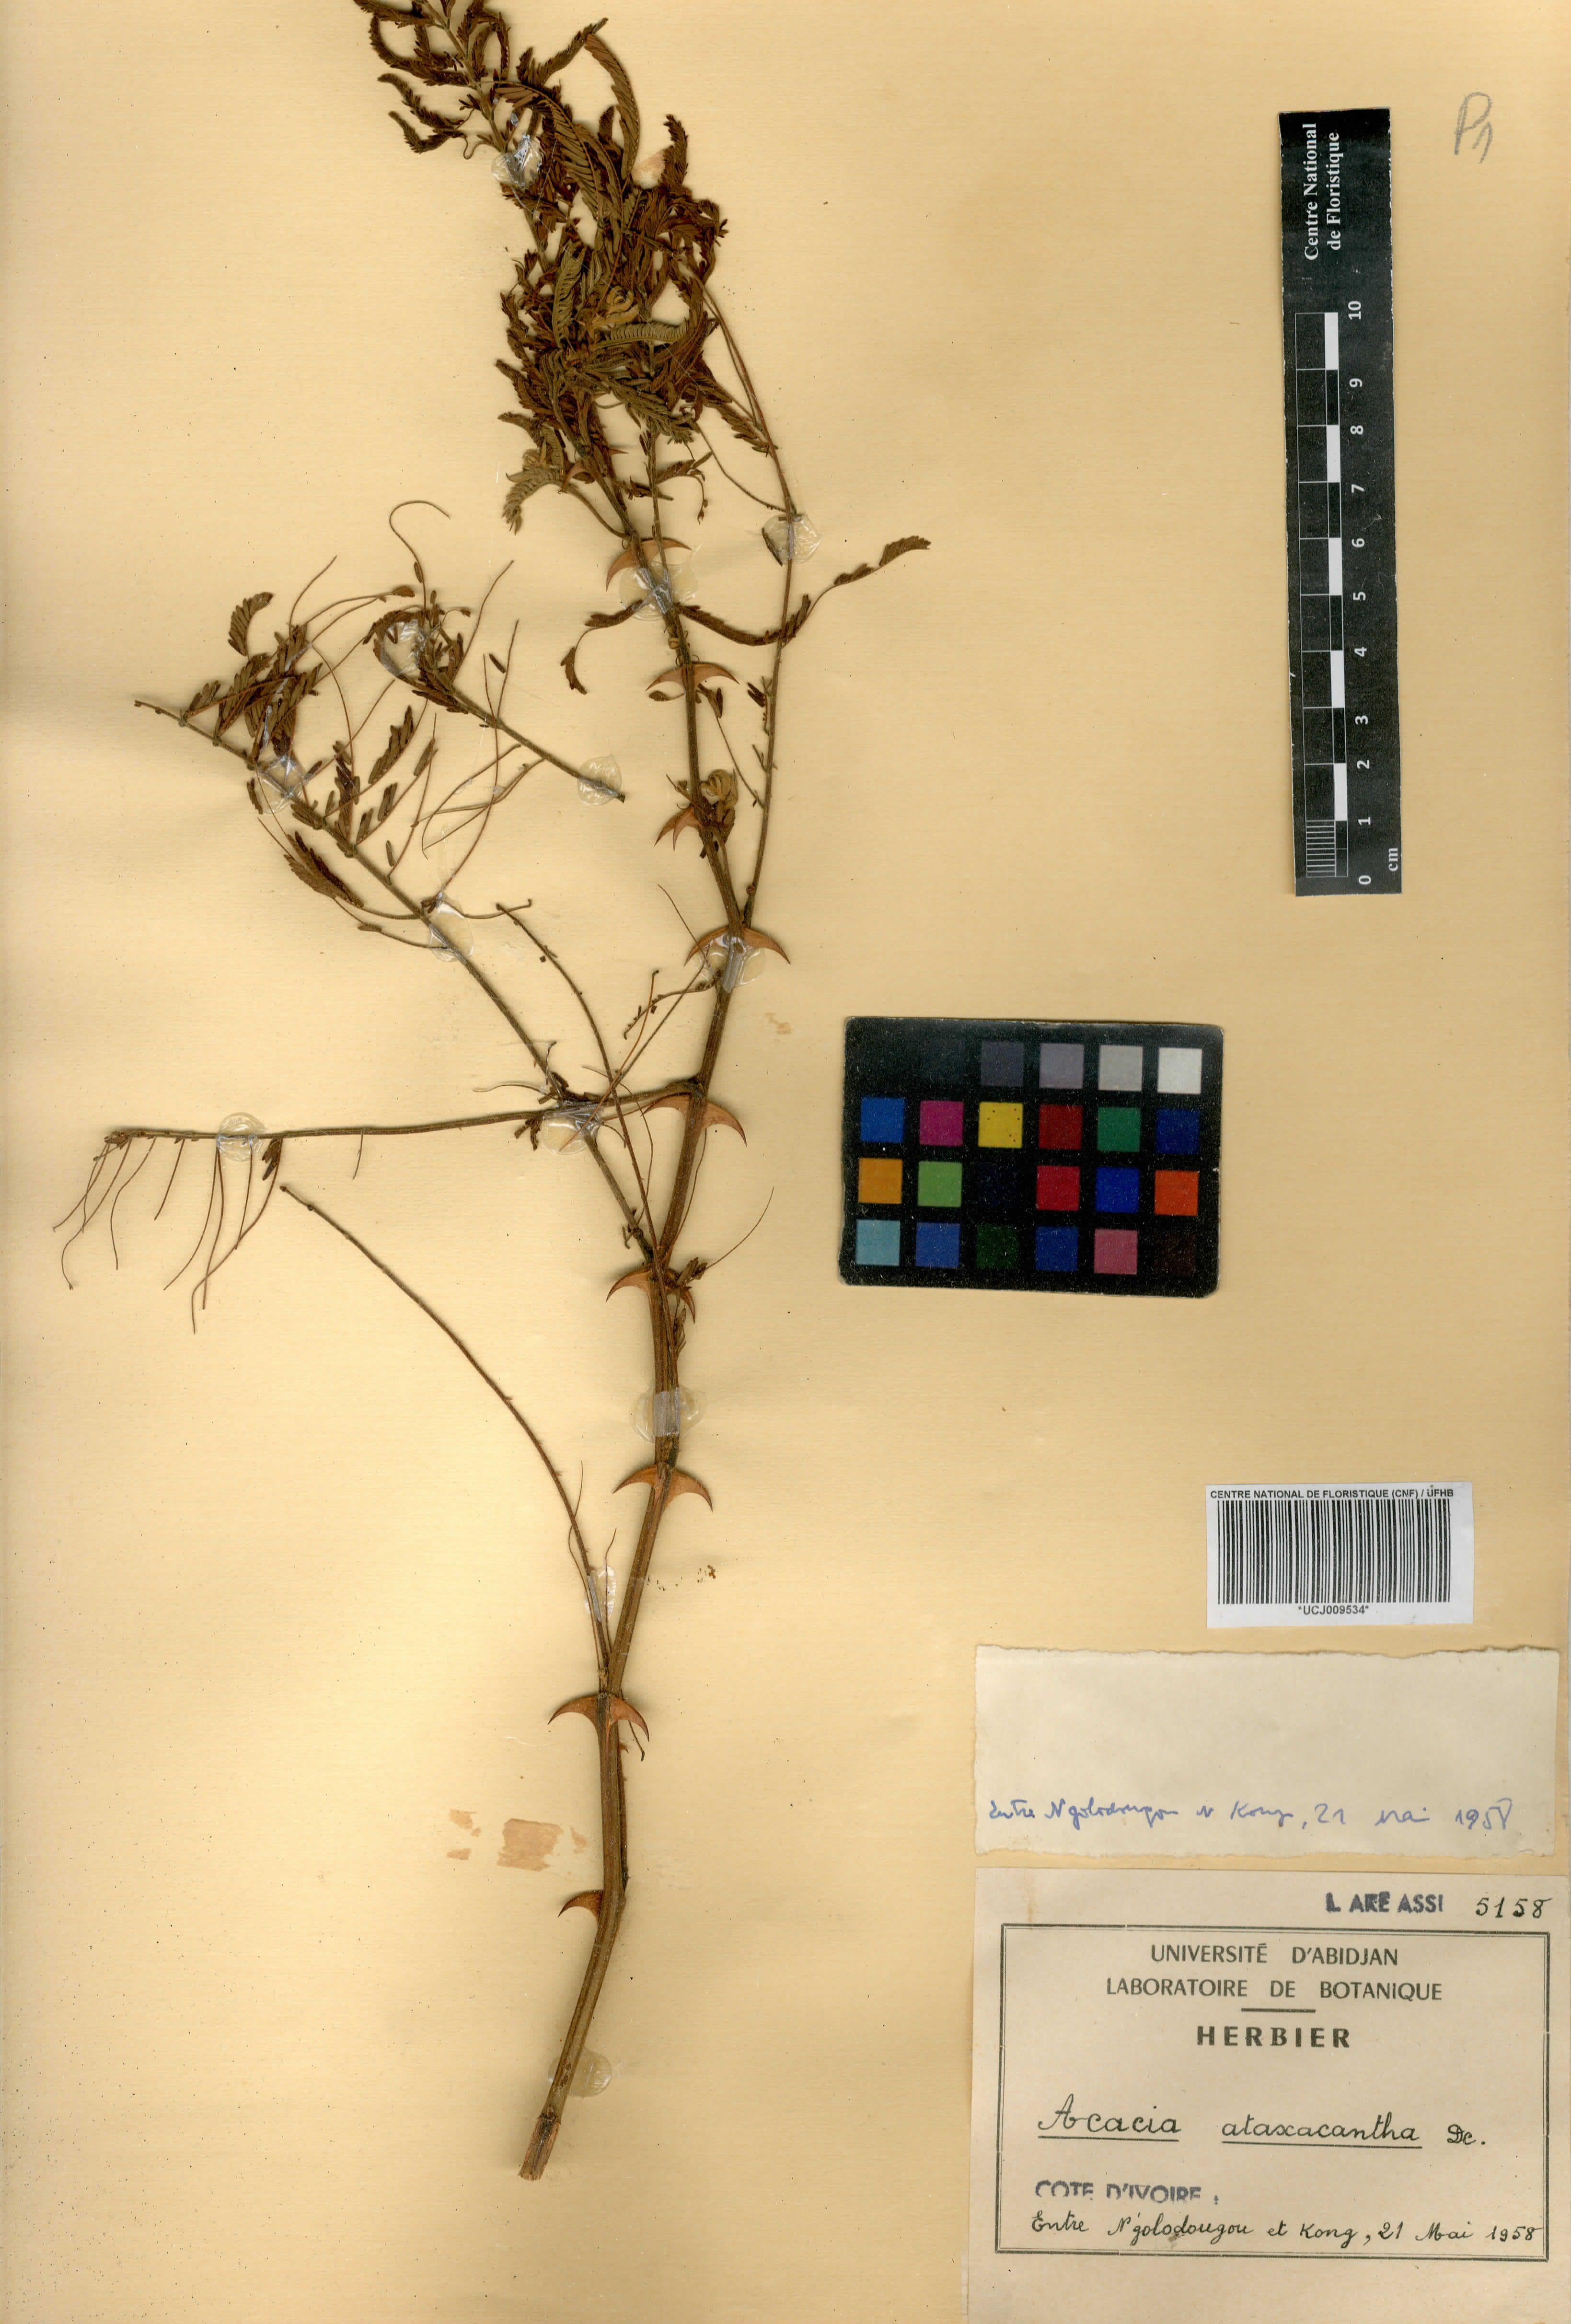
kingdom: Plantae
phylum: Tracheophyta
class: Magnoliopsida
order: Fabales
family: Fabaceae
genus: Senegalia
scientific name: Senegalia ataxacantha
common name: Flame acacia
